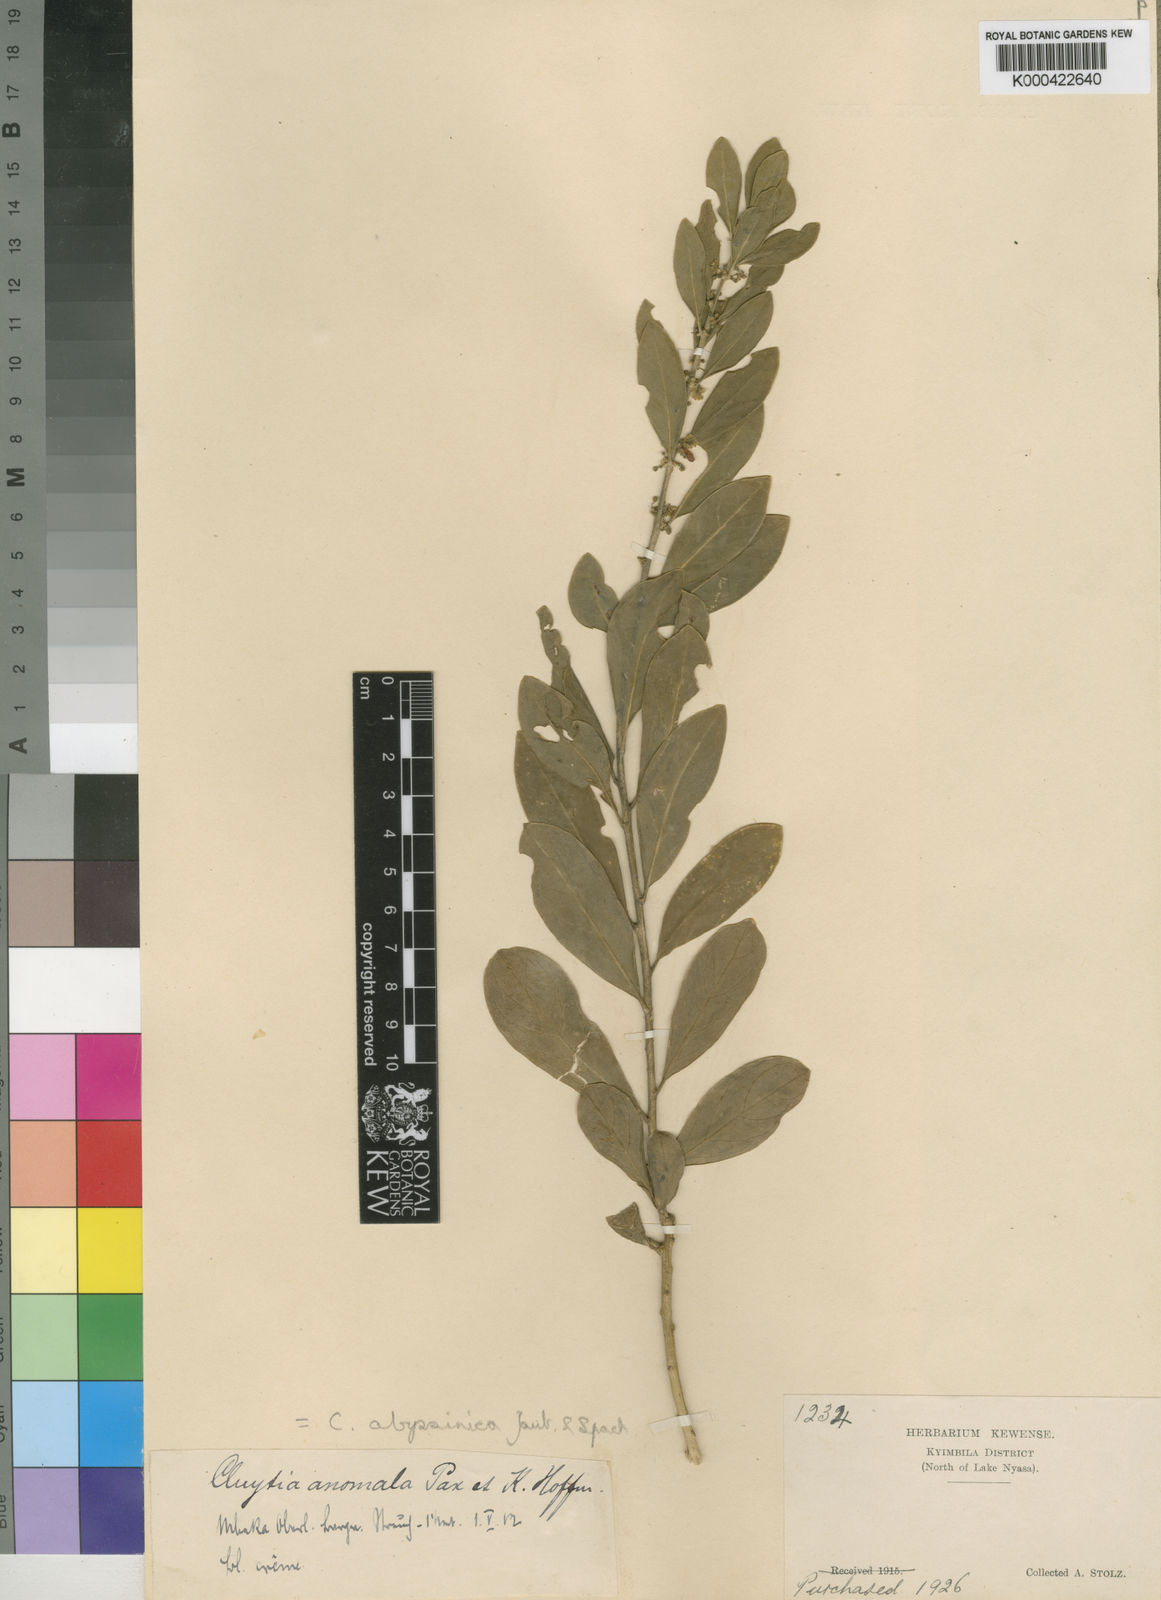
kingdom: Plantae
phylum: Tracheophyta
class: Magnoliopsida
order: Malpighiales
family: Peraceae
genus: Clutia
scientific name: Clutia abyssinica
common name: Large lightning bush
